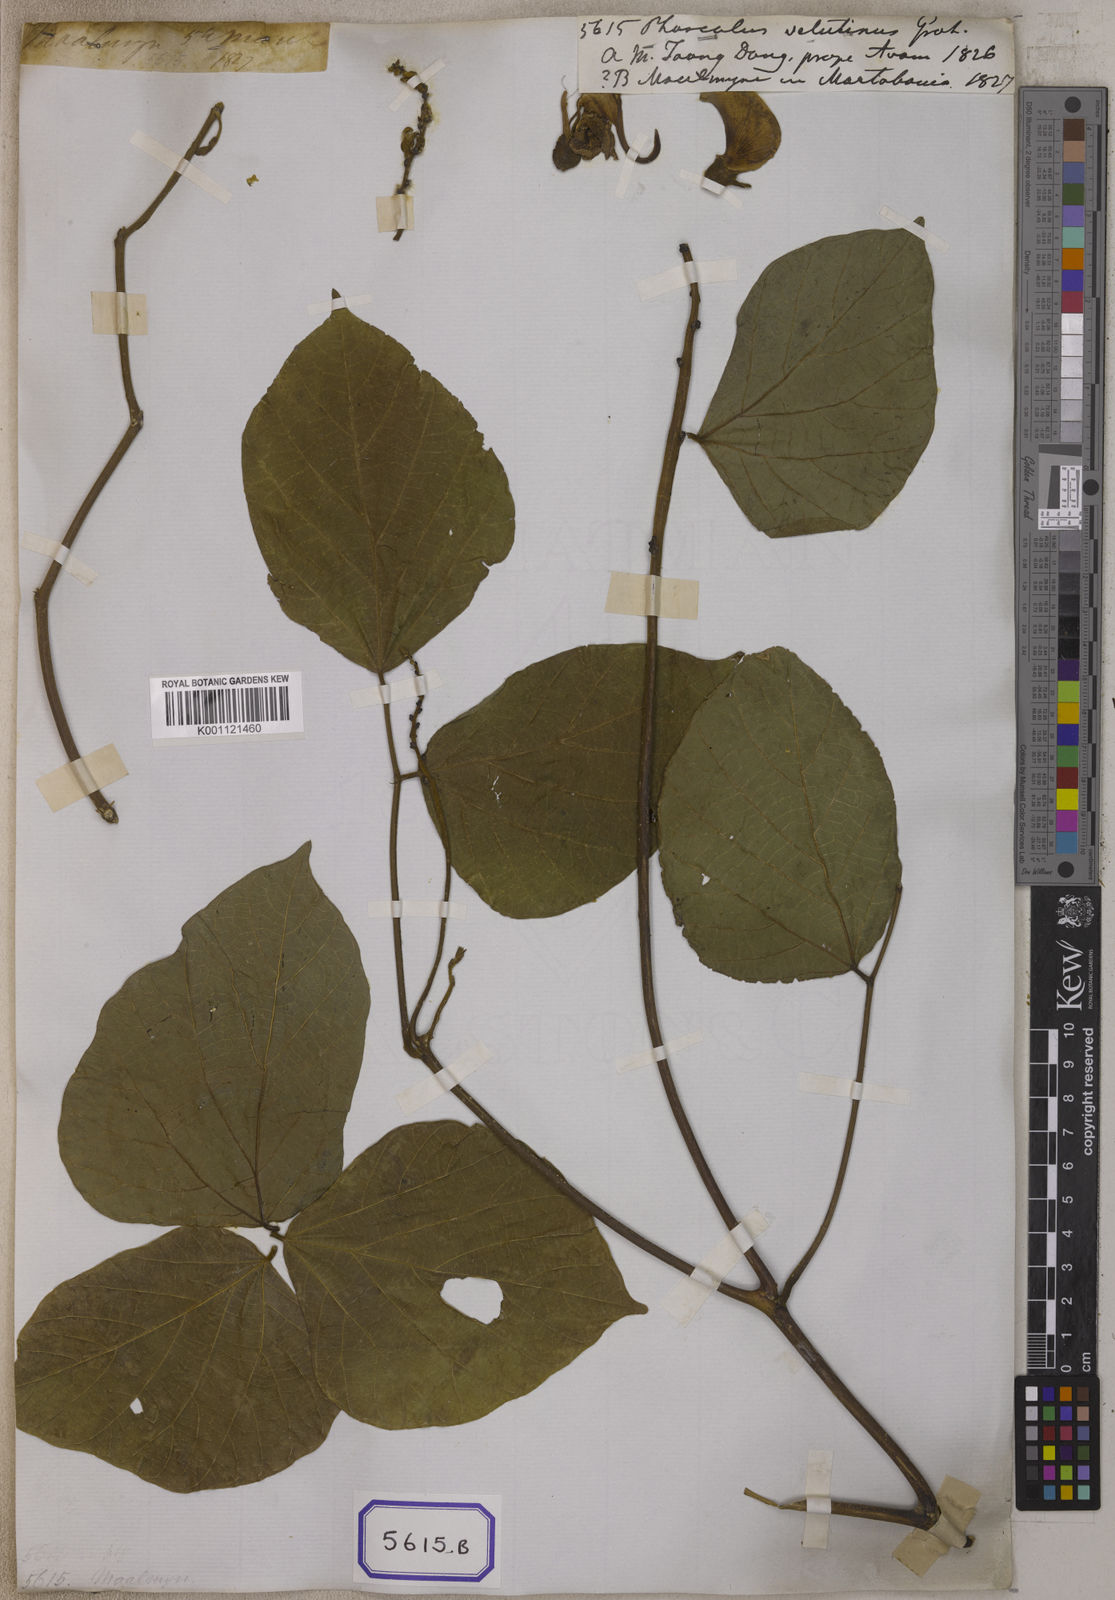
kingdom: Plantae
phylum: Tracheophyta
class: Magnoliopsida
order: Fabales
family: Fabaceae
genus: Phaseolus
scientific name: Phaseolus
